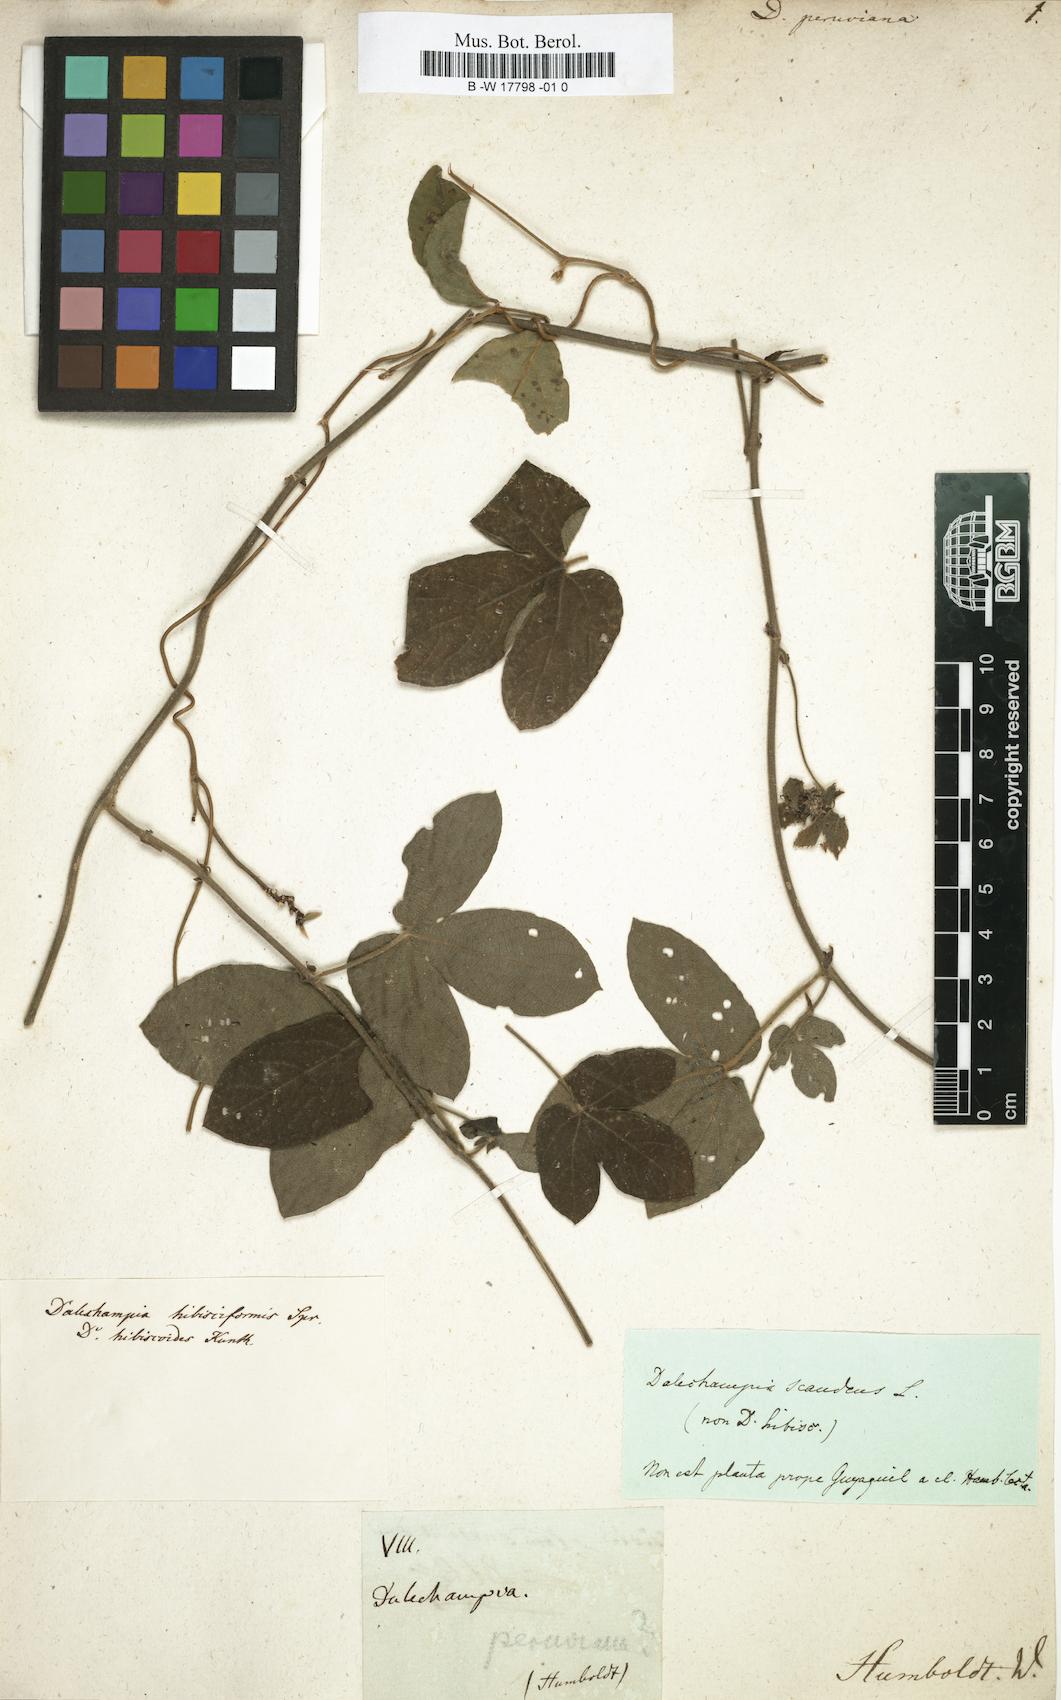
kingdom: Plantae
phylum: Tracheophyta
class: Magnoliopsida
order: Malpighiales
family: Euphorbiaceae
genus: Dalechampia
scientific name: Dalechampia tiliifolia
